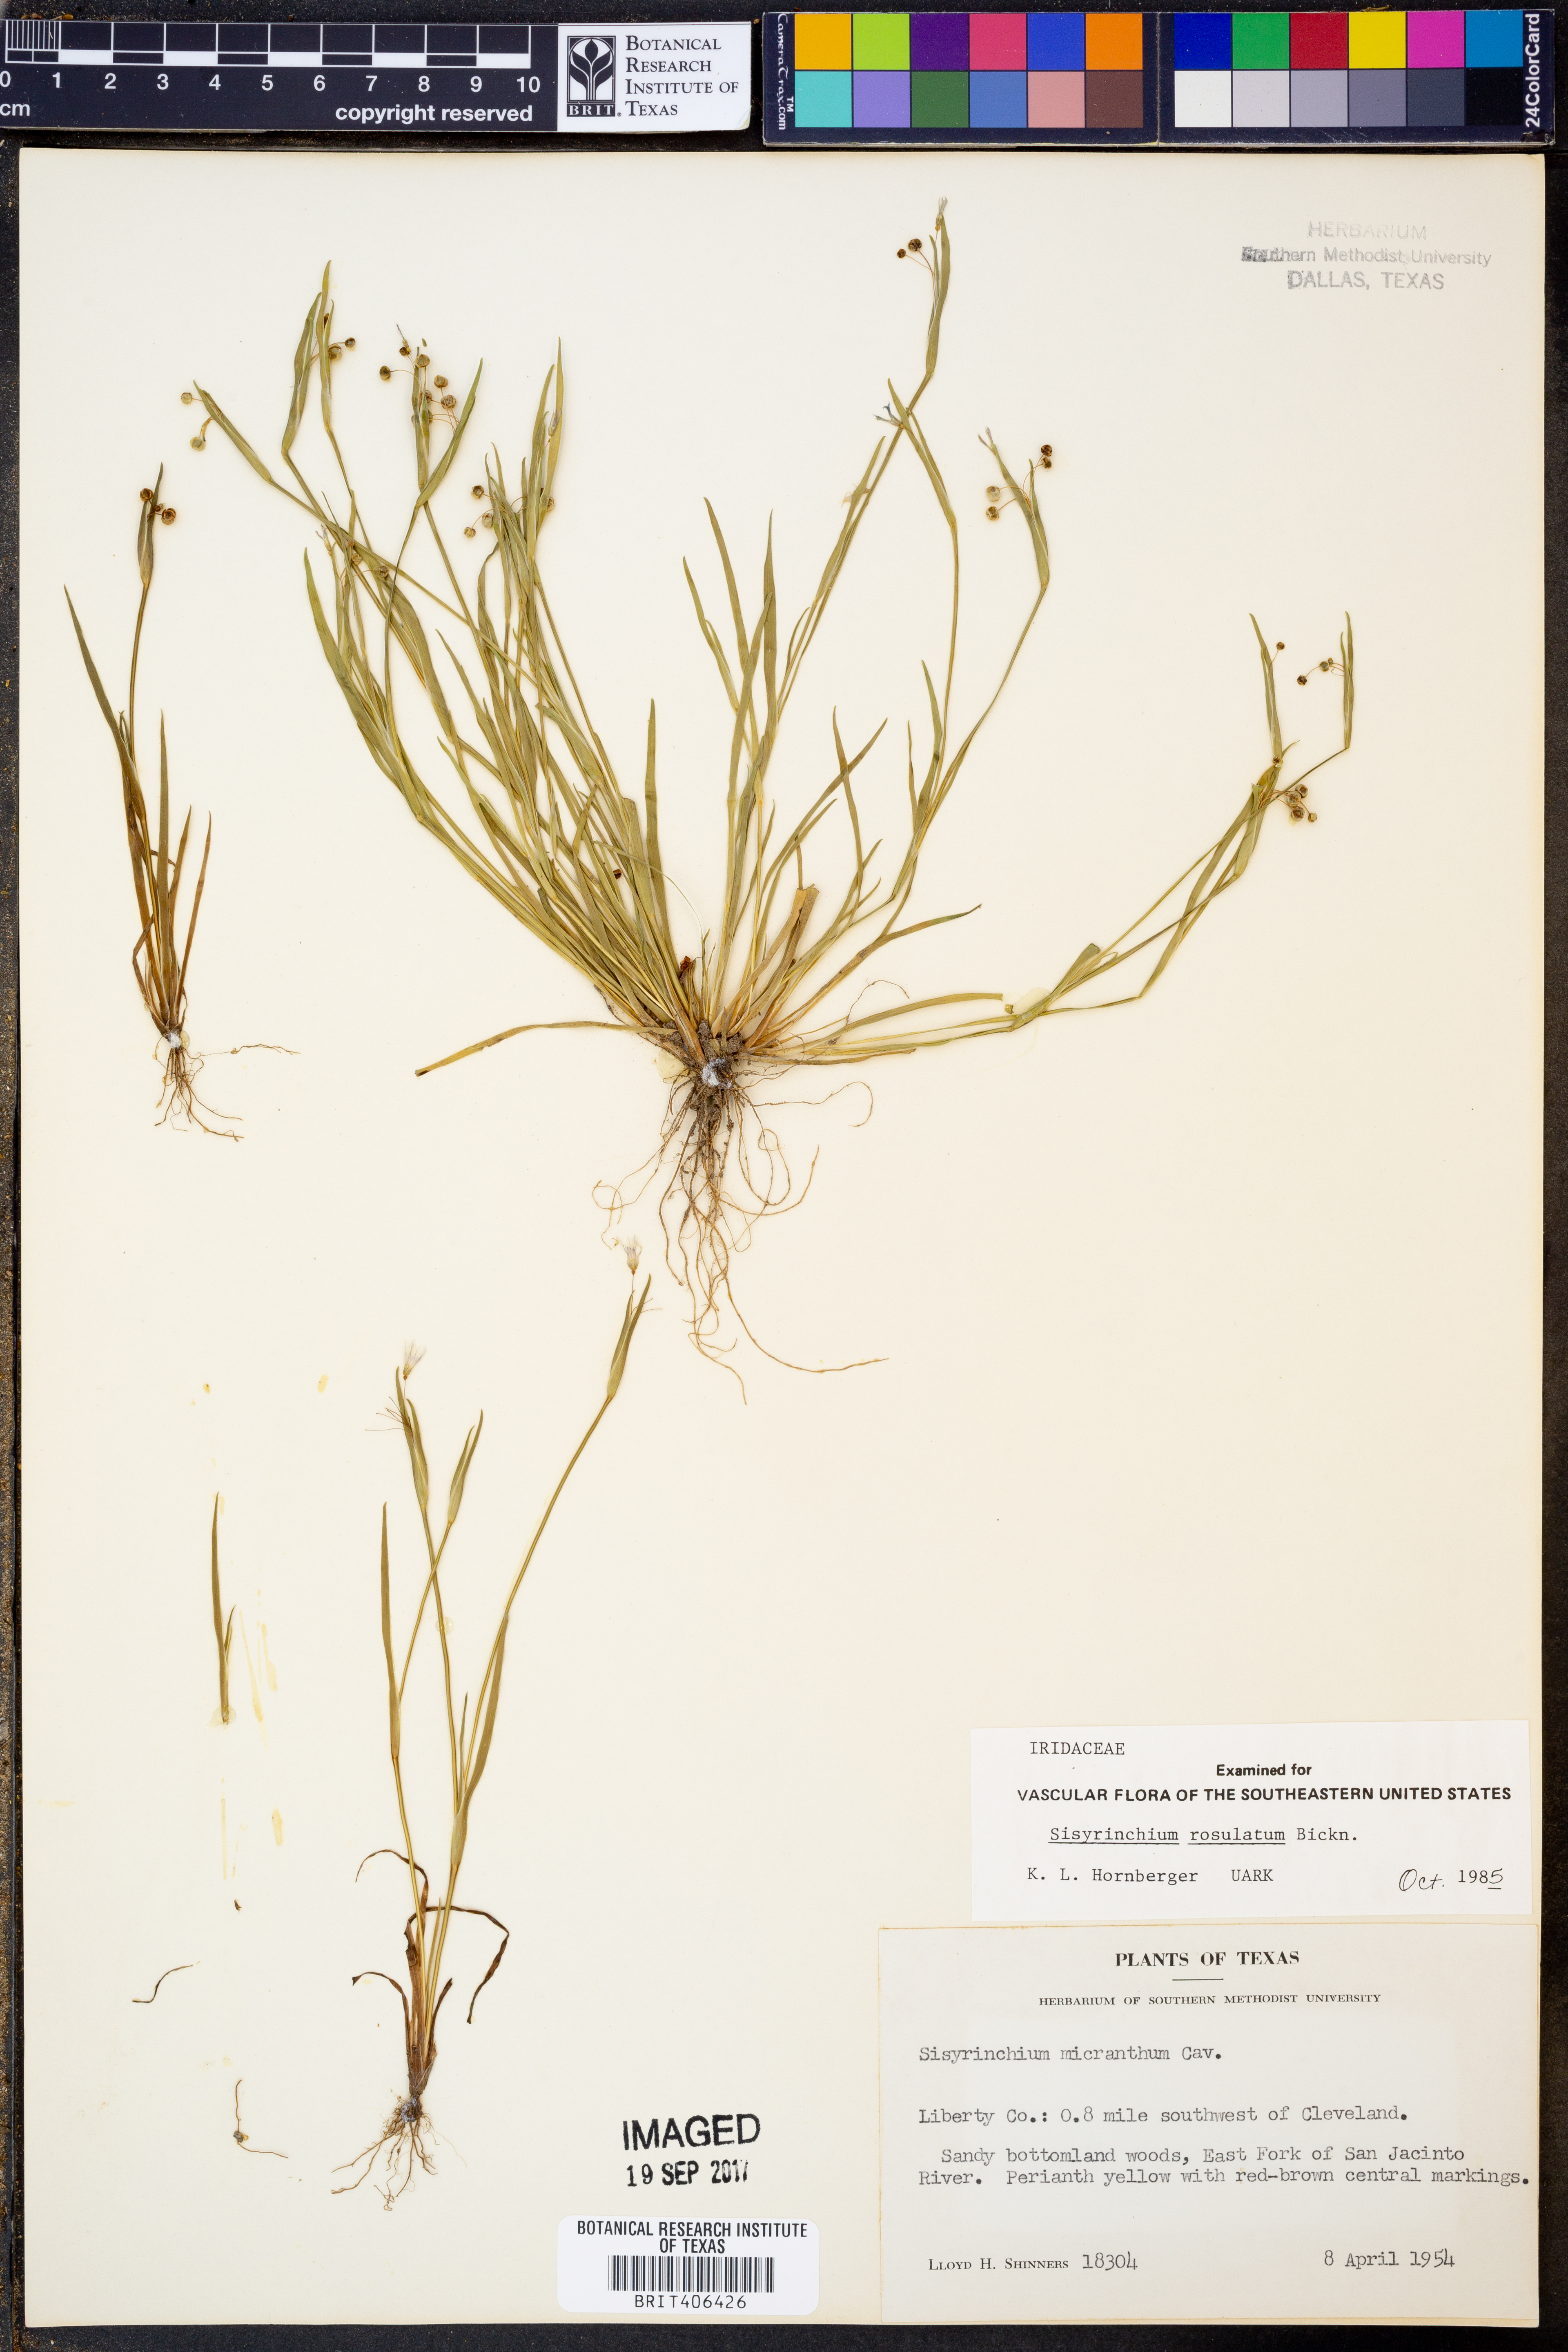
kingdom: Plantae
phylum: Tracheophyta
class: Liliopsida
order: Asparagales
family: Iridaceae
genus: Sisyrinchium
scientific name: Sisyrinchium rosulatum
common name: Annual blue-eyed grass
